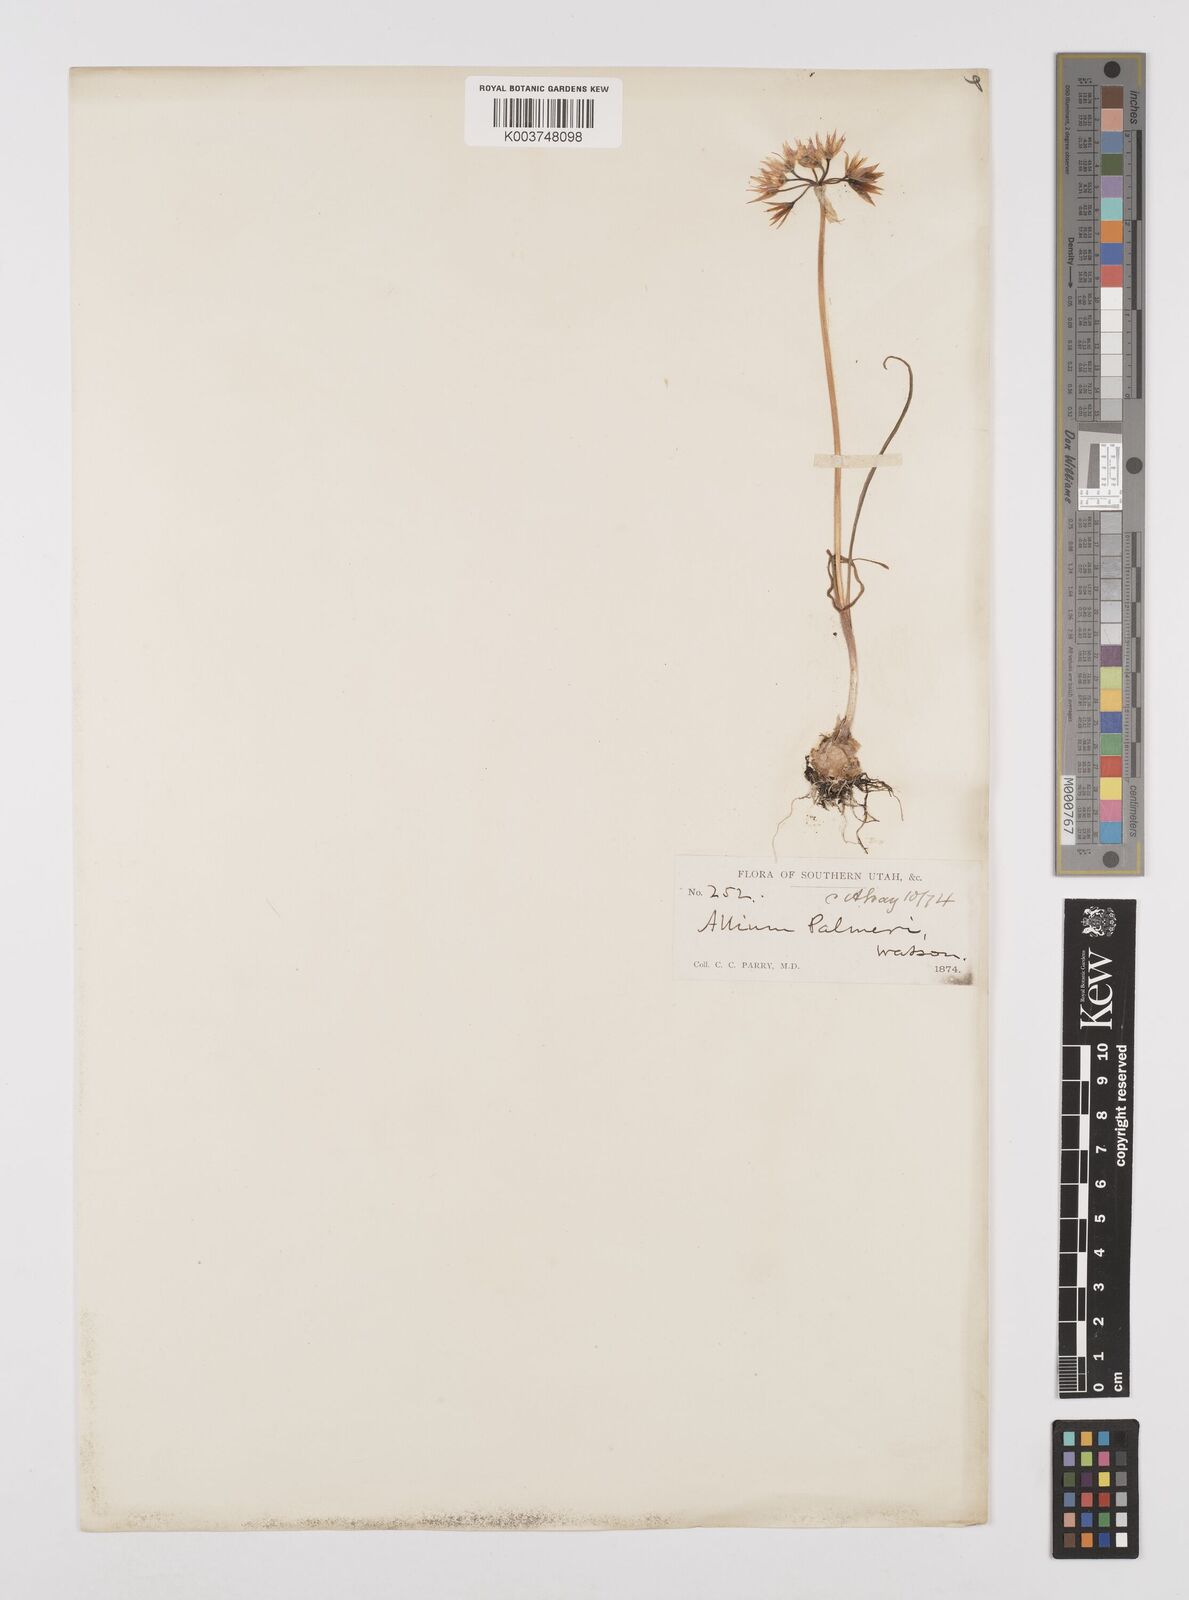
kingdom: Plantae
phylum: Tracheophyta
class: Liliopsida
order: Asparagales
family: Amaryllidaceae
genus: Allium
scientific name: Allium bisceptrum
